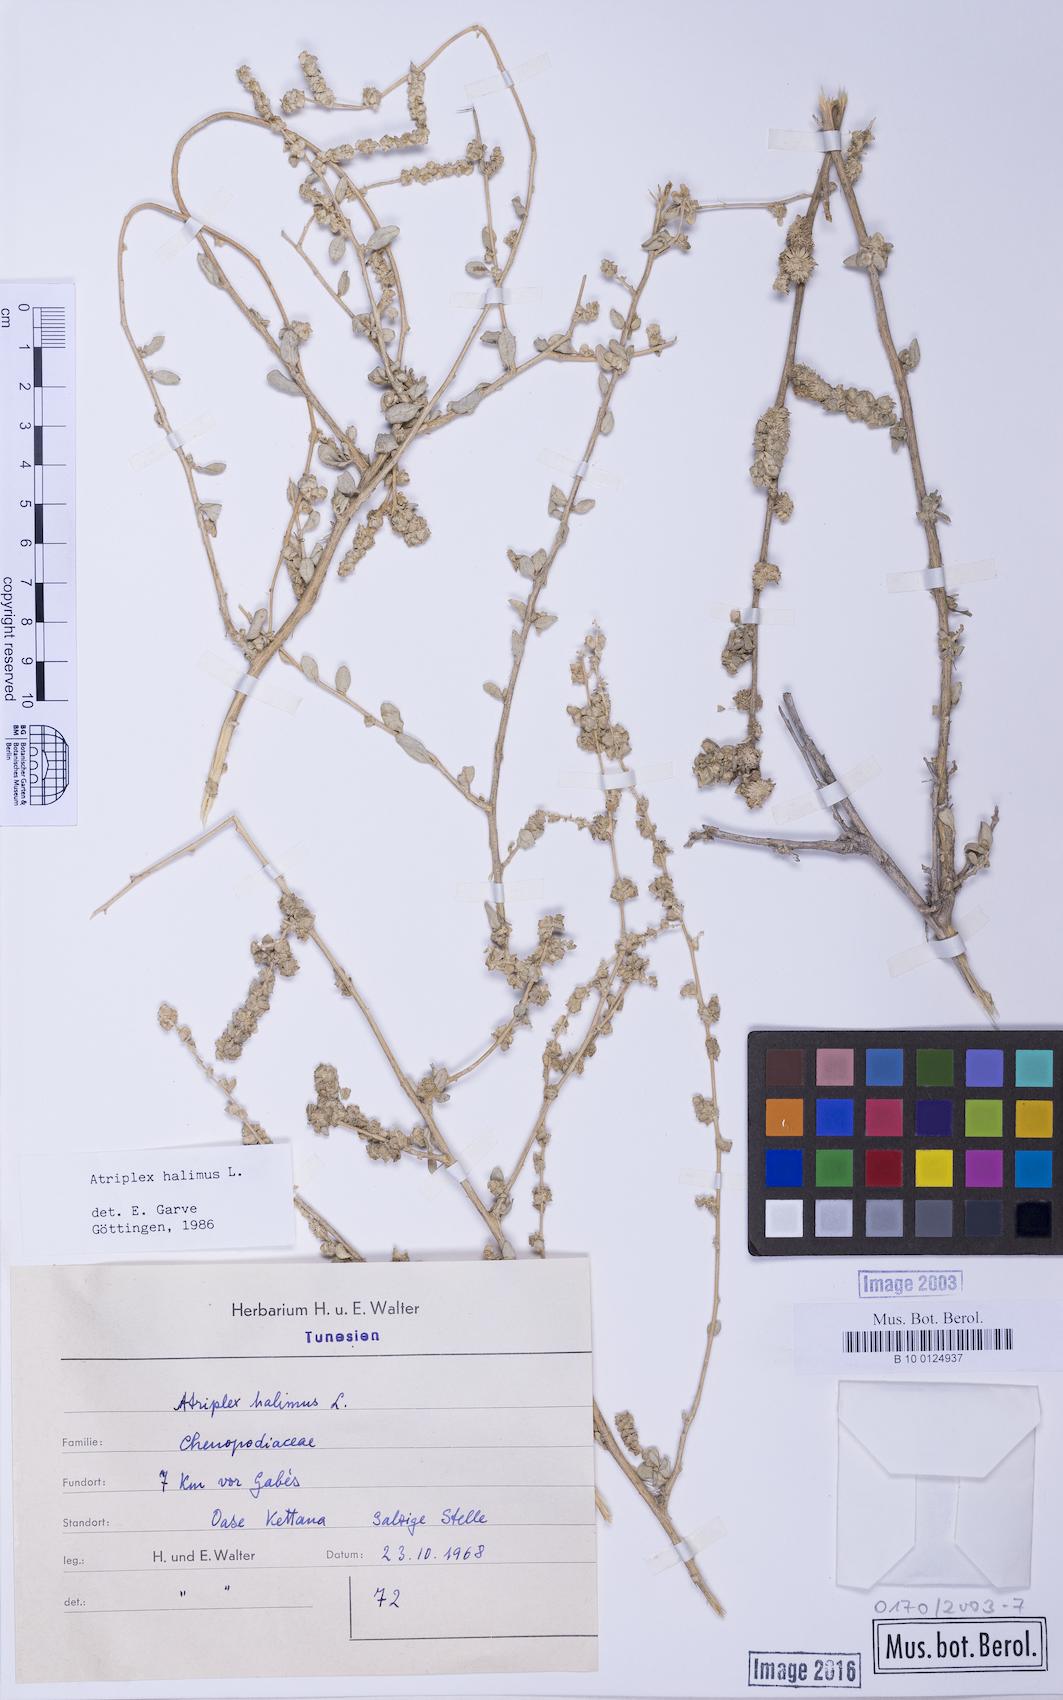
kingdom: Plantae
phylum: Tracheophyta
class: Magnoliopsida
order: Caryophyllales
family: Amaranthaceae
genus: Atriplex
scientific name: Atriplex halimus
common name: Shrubby orache
